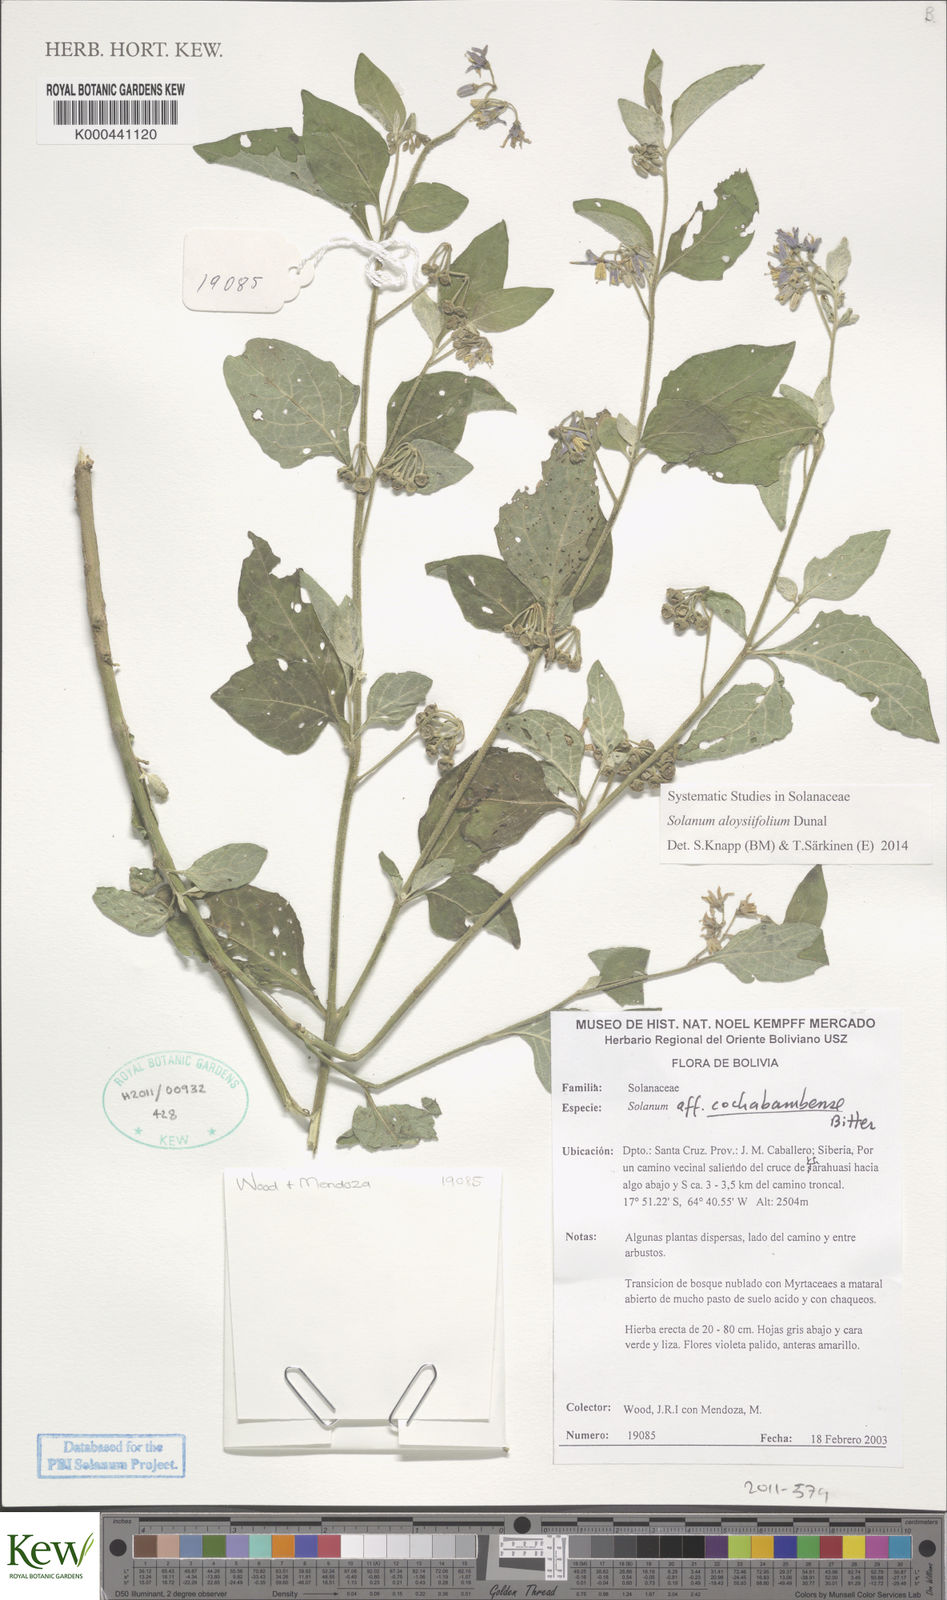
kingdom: Plantae
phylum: Tracheophyta
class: Magnoliopsida
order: Solanales
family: Solanaceae
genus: Solanum
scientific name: Solanum aloysiifolium
